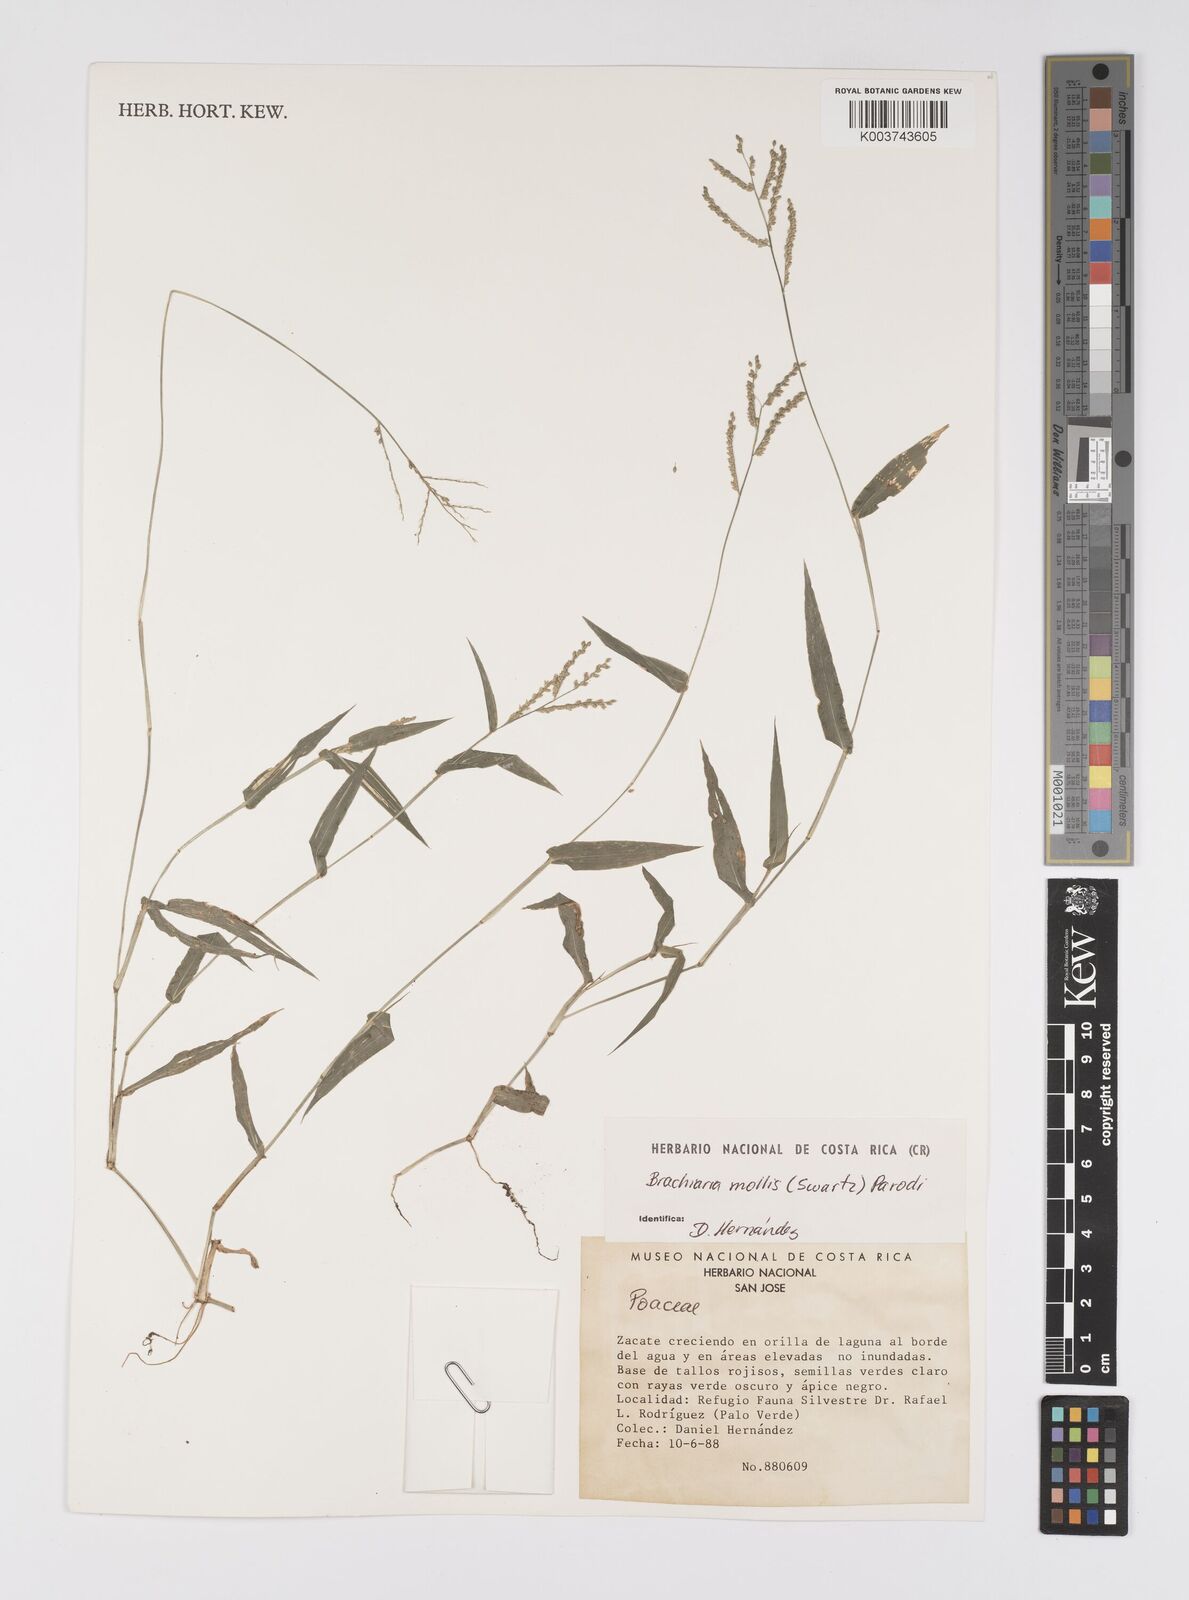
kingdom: Plantae
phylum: Tracheophyta
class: Liliopsida
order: Poales
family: Poaceae
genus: Urochloa
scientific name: Urochloa mollis
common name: Grass
